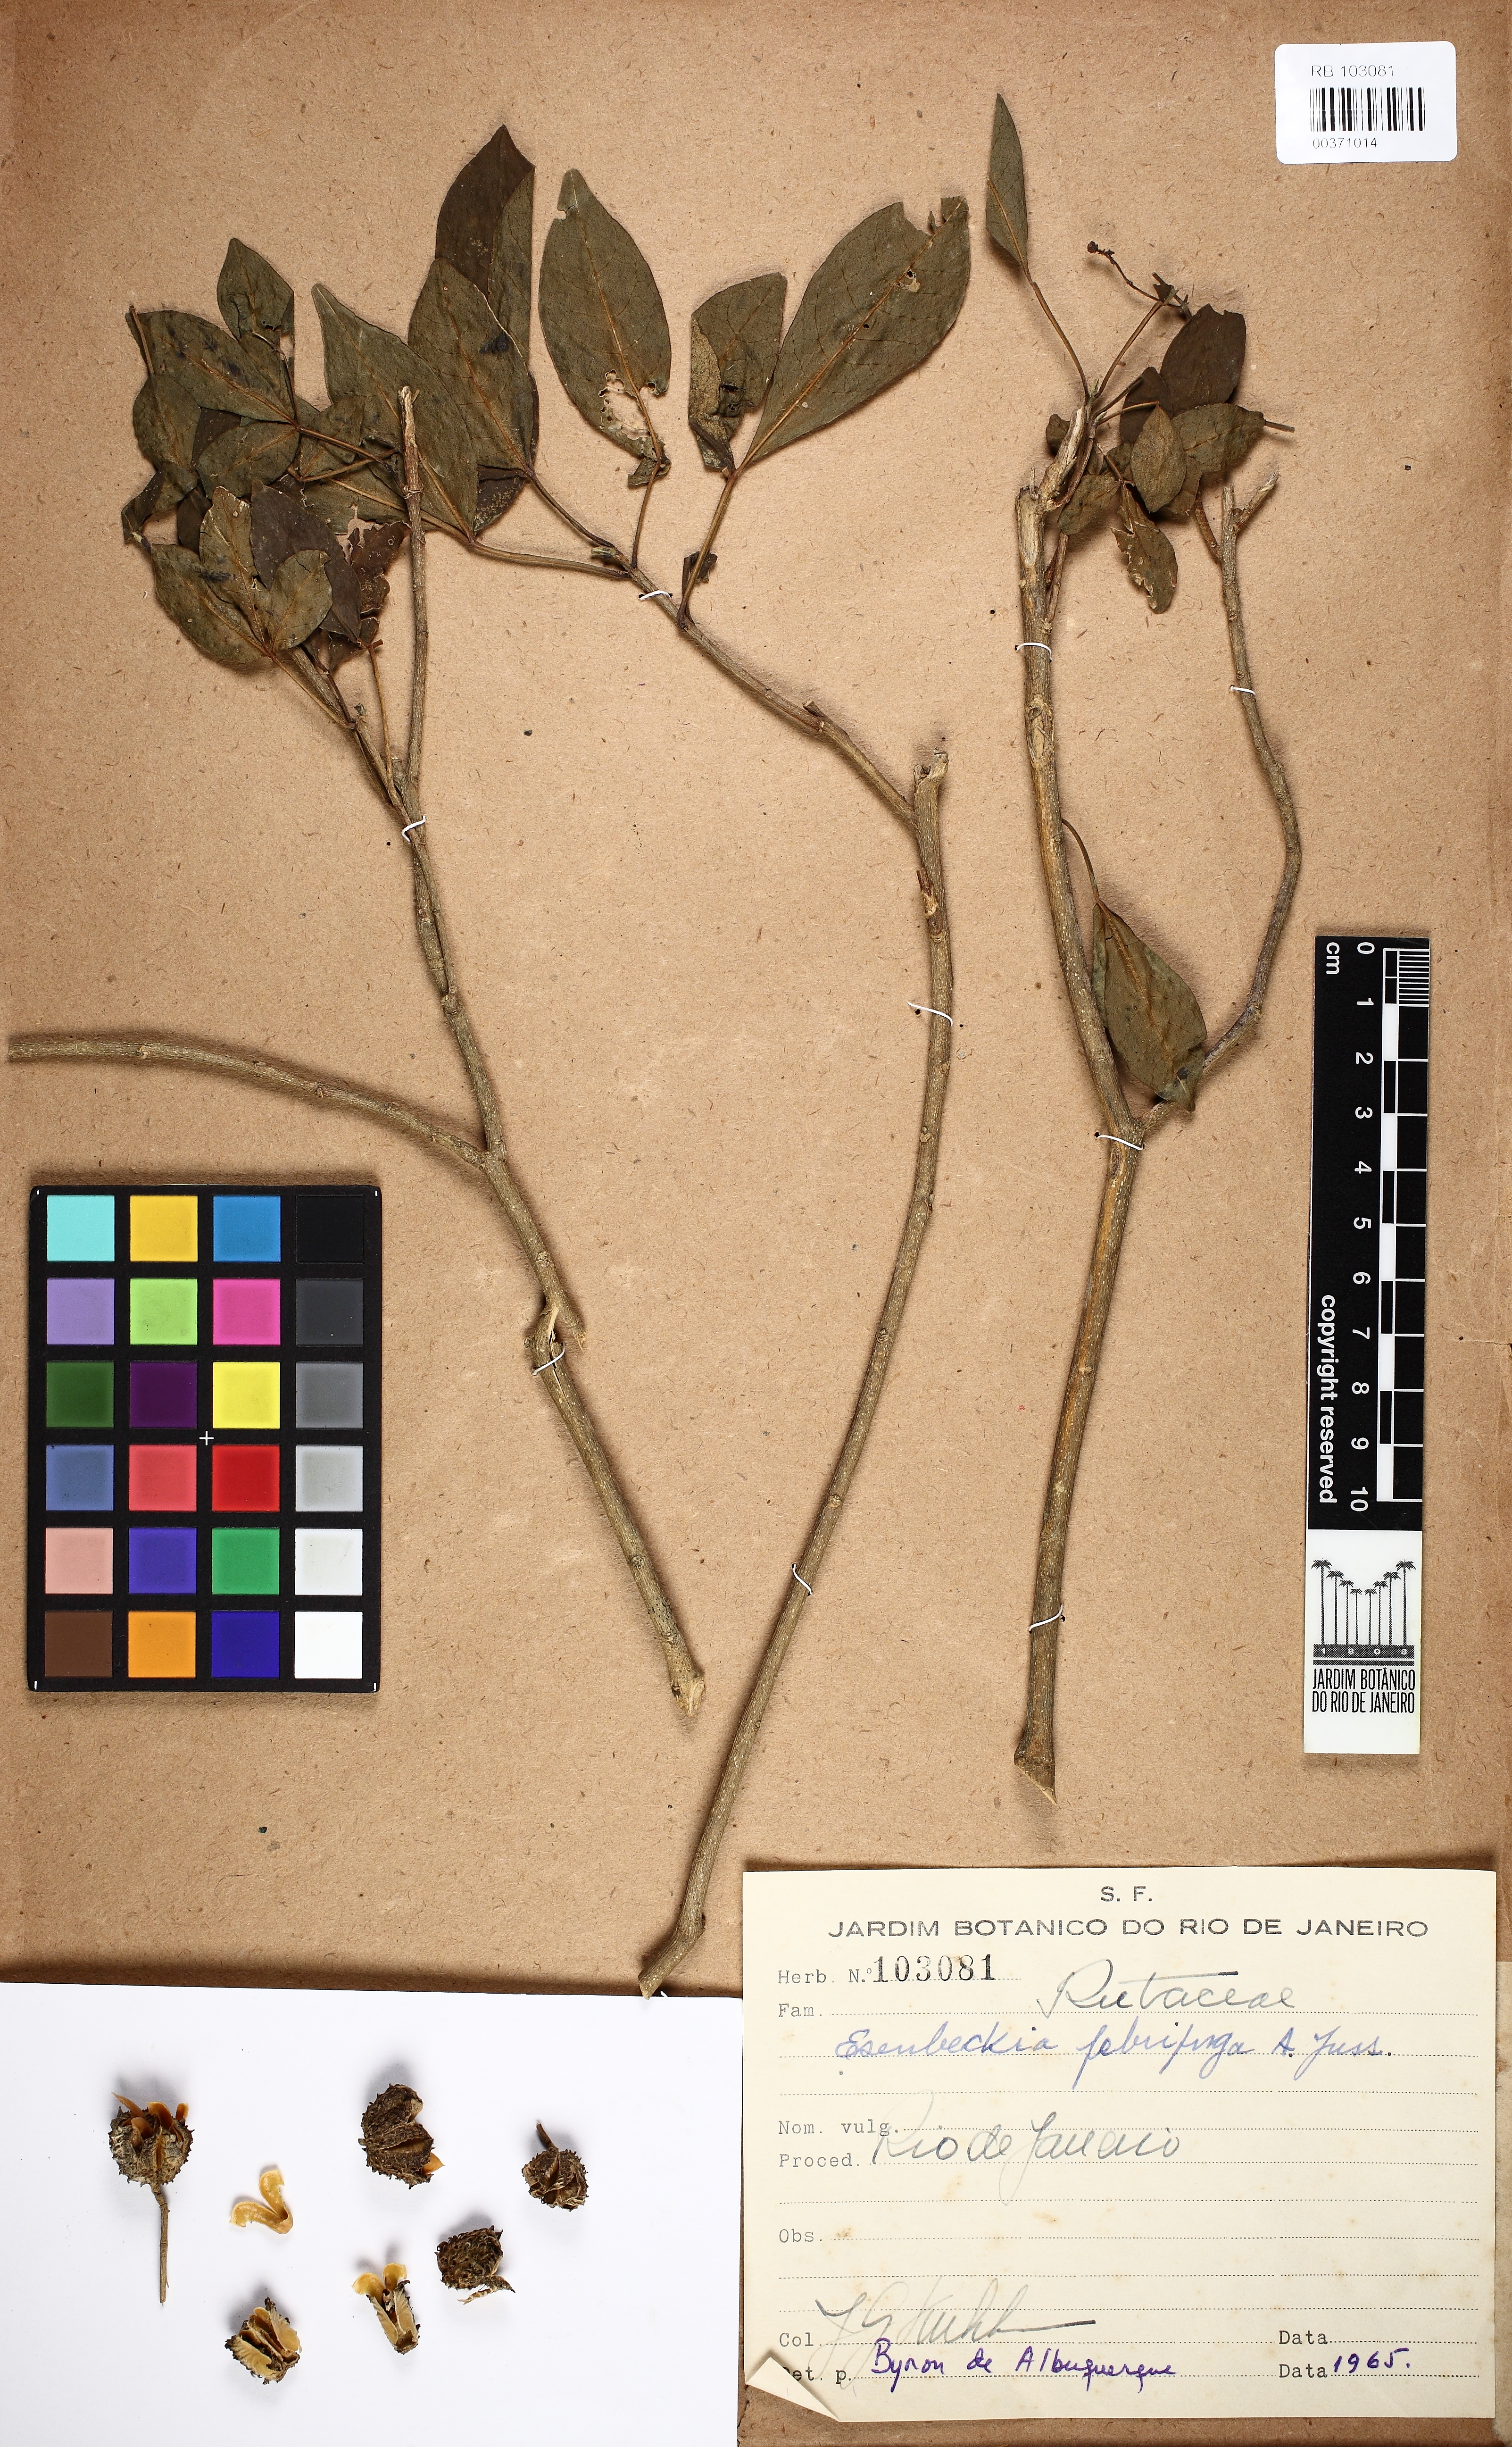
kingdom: Plantae
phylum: Tracheophyta
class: Magnoliopsida
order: Sapindales
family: Rutaceae
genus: Esenbeckia
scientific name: Esenbeckia febrifuga
